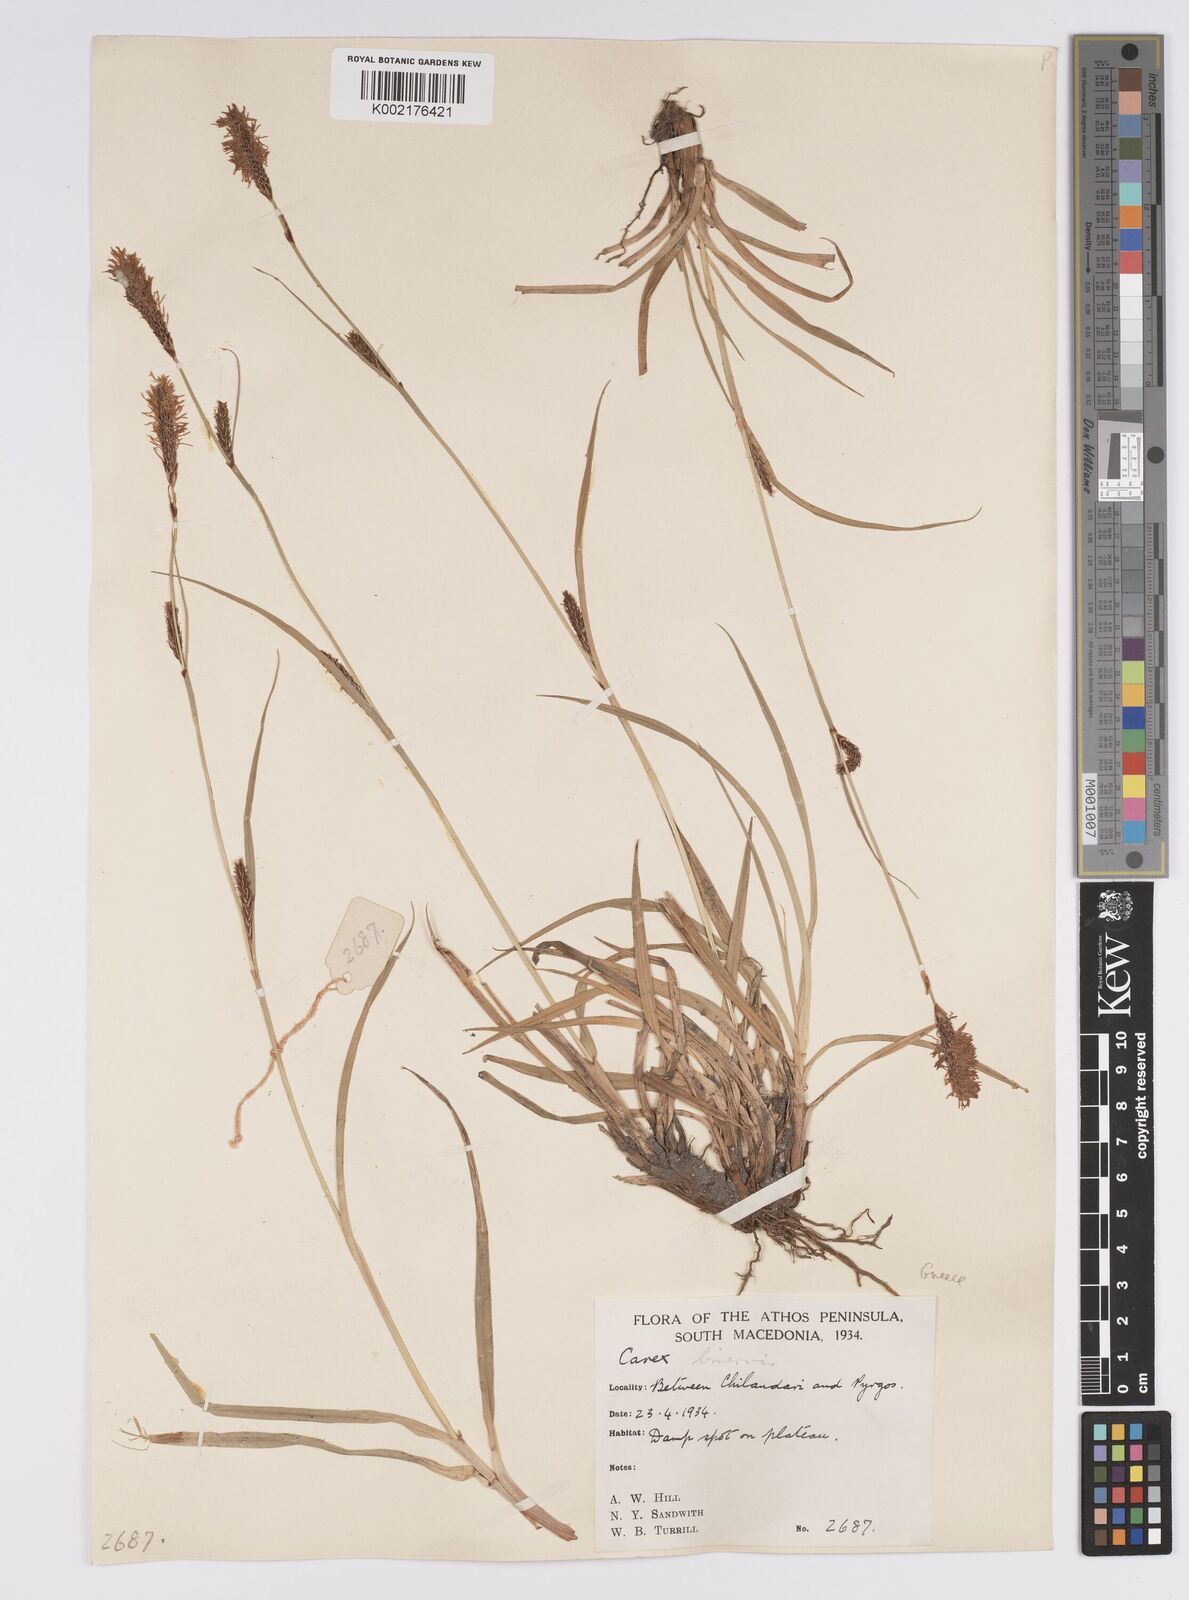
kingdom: Plantae
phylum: Tracheophyta
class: Liliopsida
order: Poales
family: Cyperaceae
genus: Carex
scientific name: Carex distans
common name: Distant sedge
